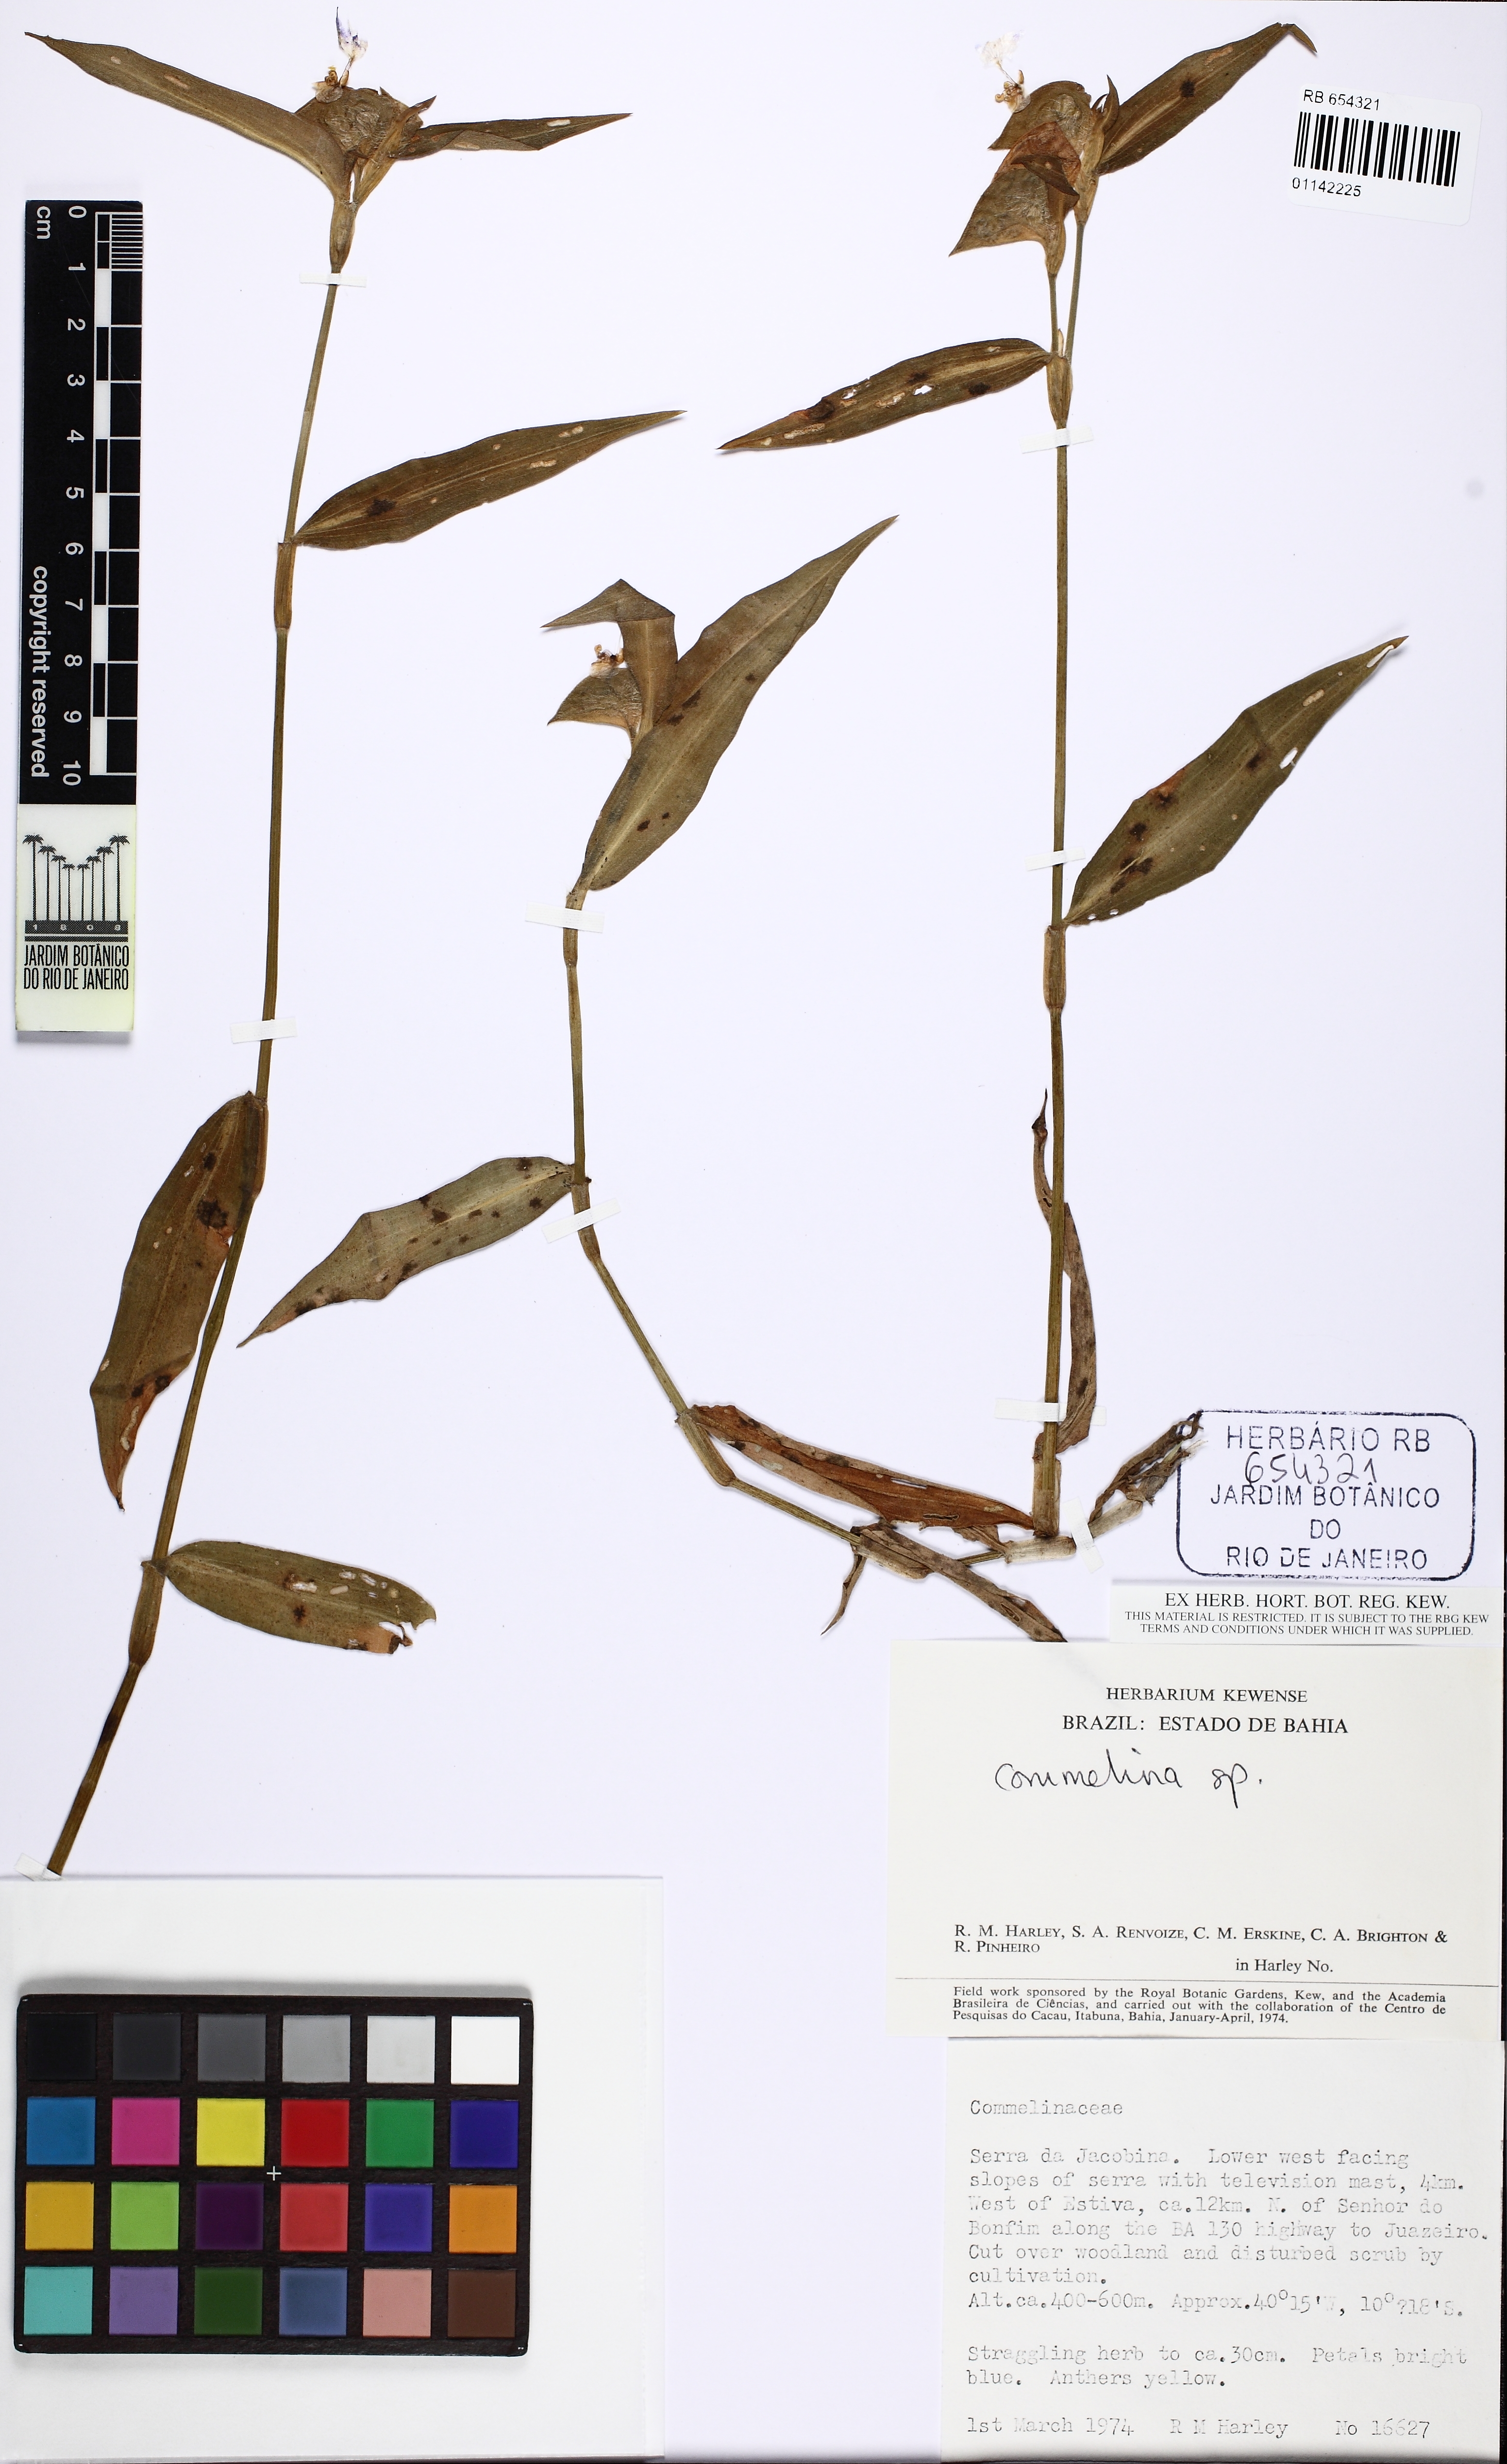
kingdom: Plantae
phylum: Tracheophyta
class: Liliopsida
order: Commelinales
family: Commelinaceae
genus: Commelina
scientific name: Commelina erecta
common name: Blousel blommetjie
